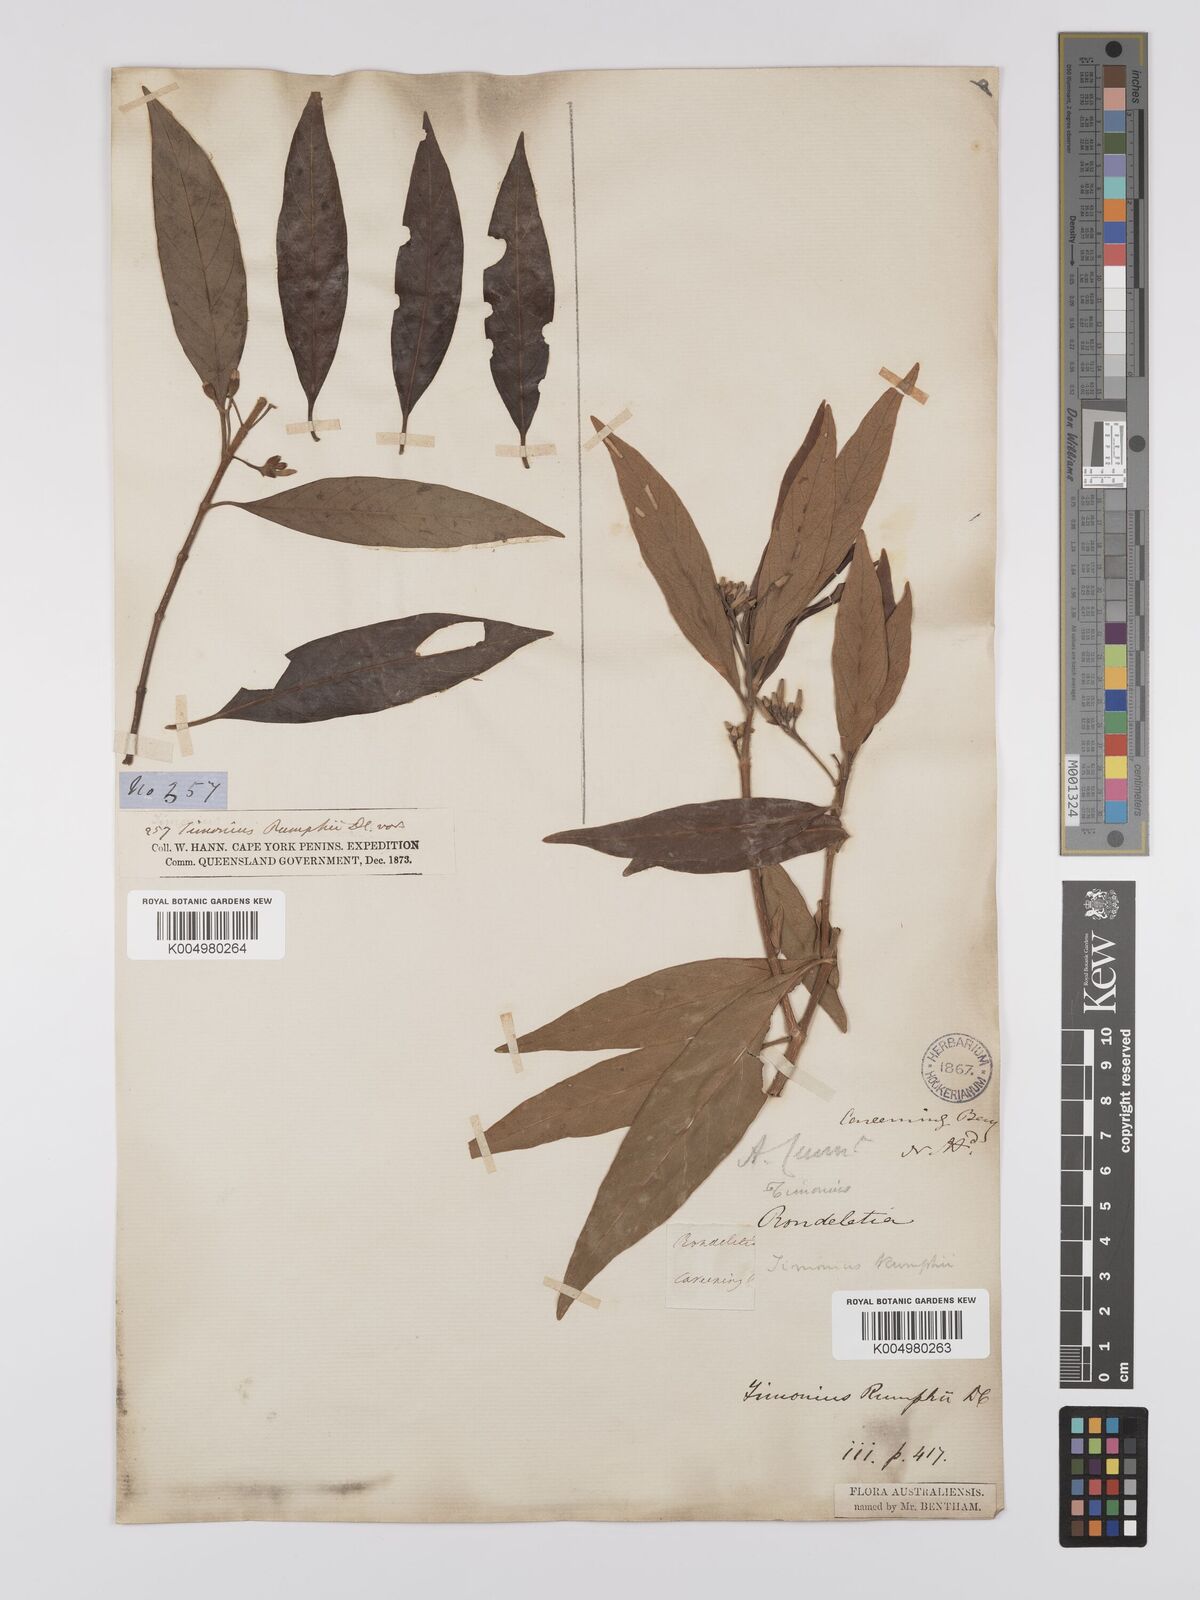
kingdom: Plantae
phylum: Tracheophyta
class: Magnoliopsida
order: Gentianales
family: Rubiaceae
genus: Timonius
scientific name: Timonius timon
